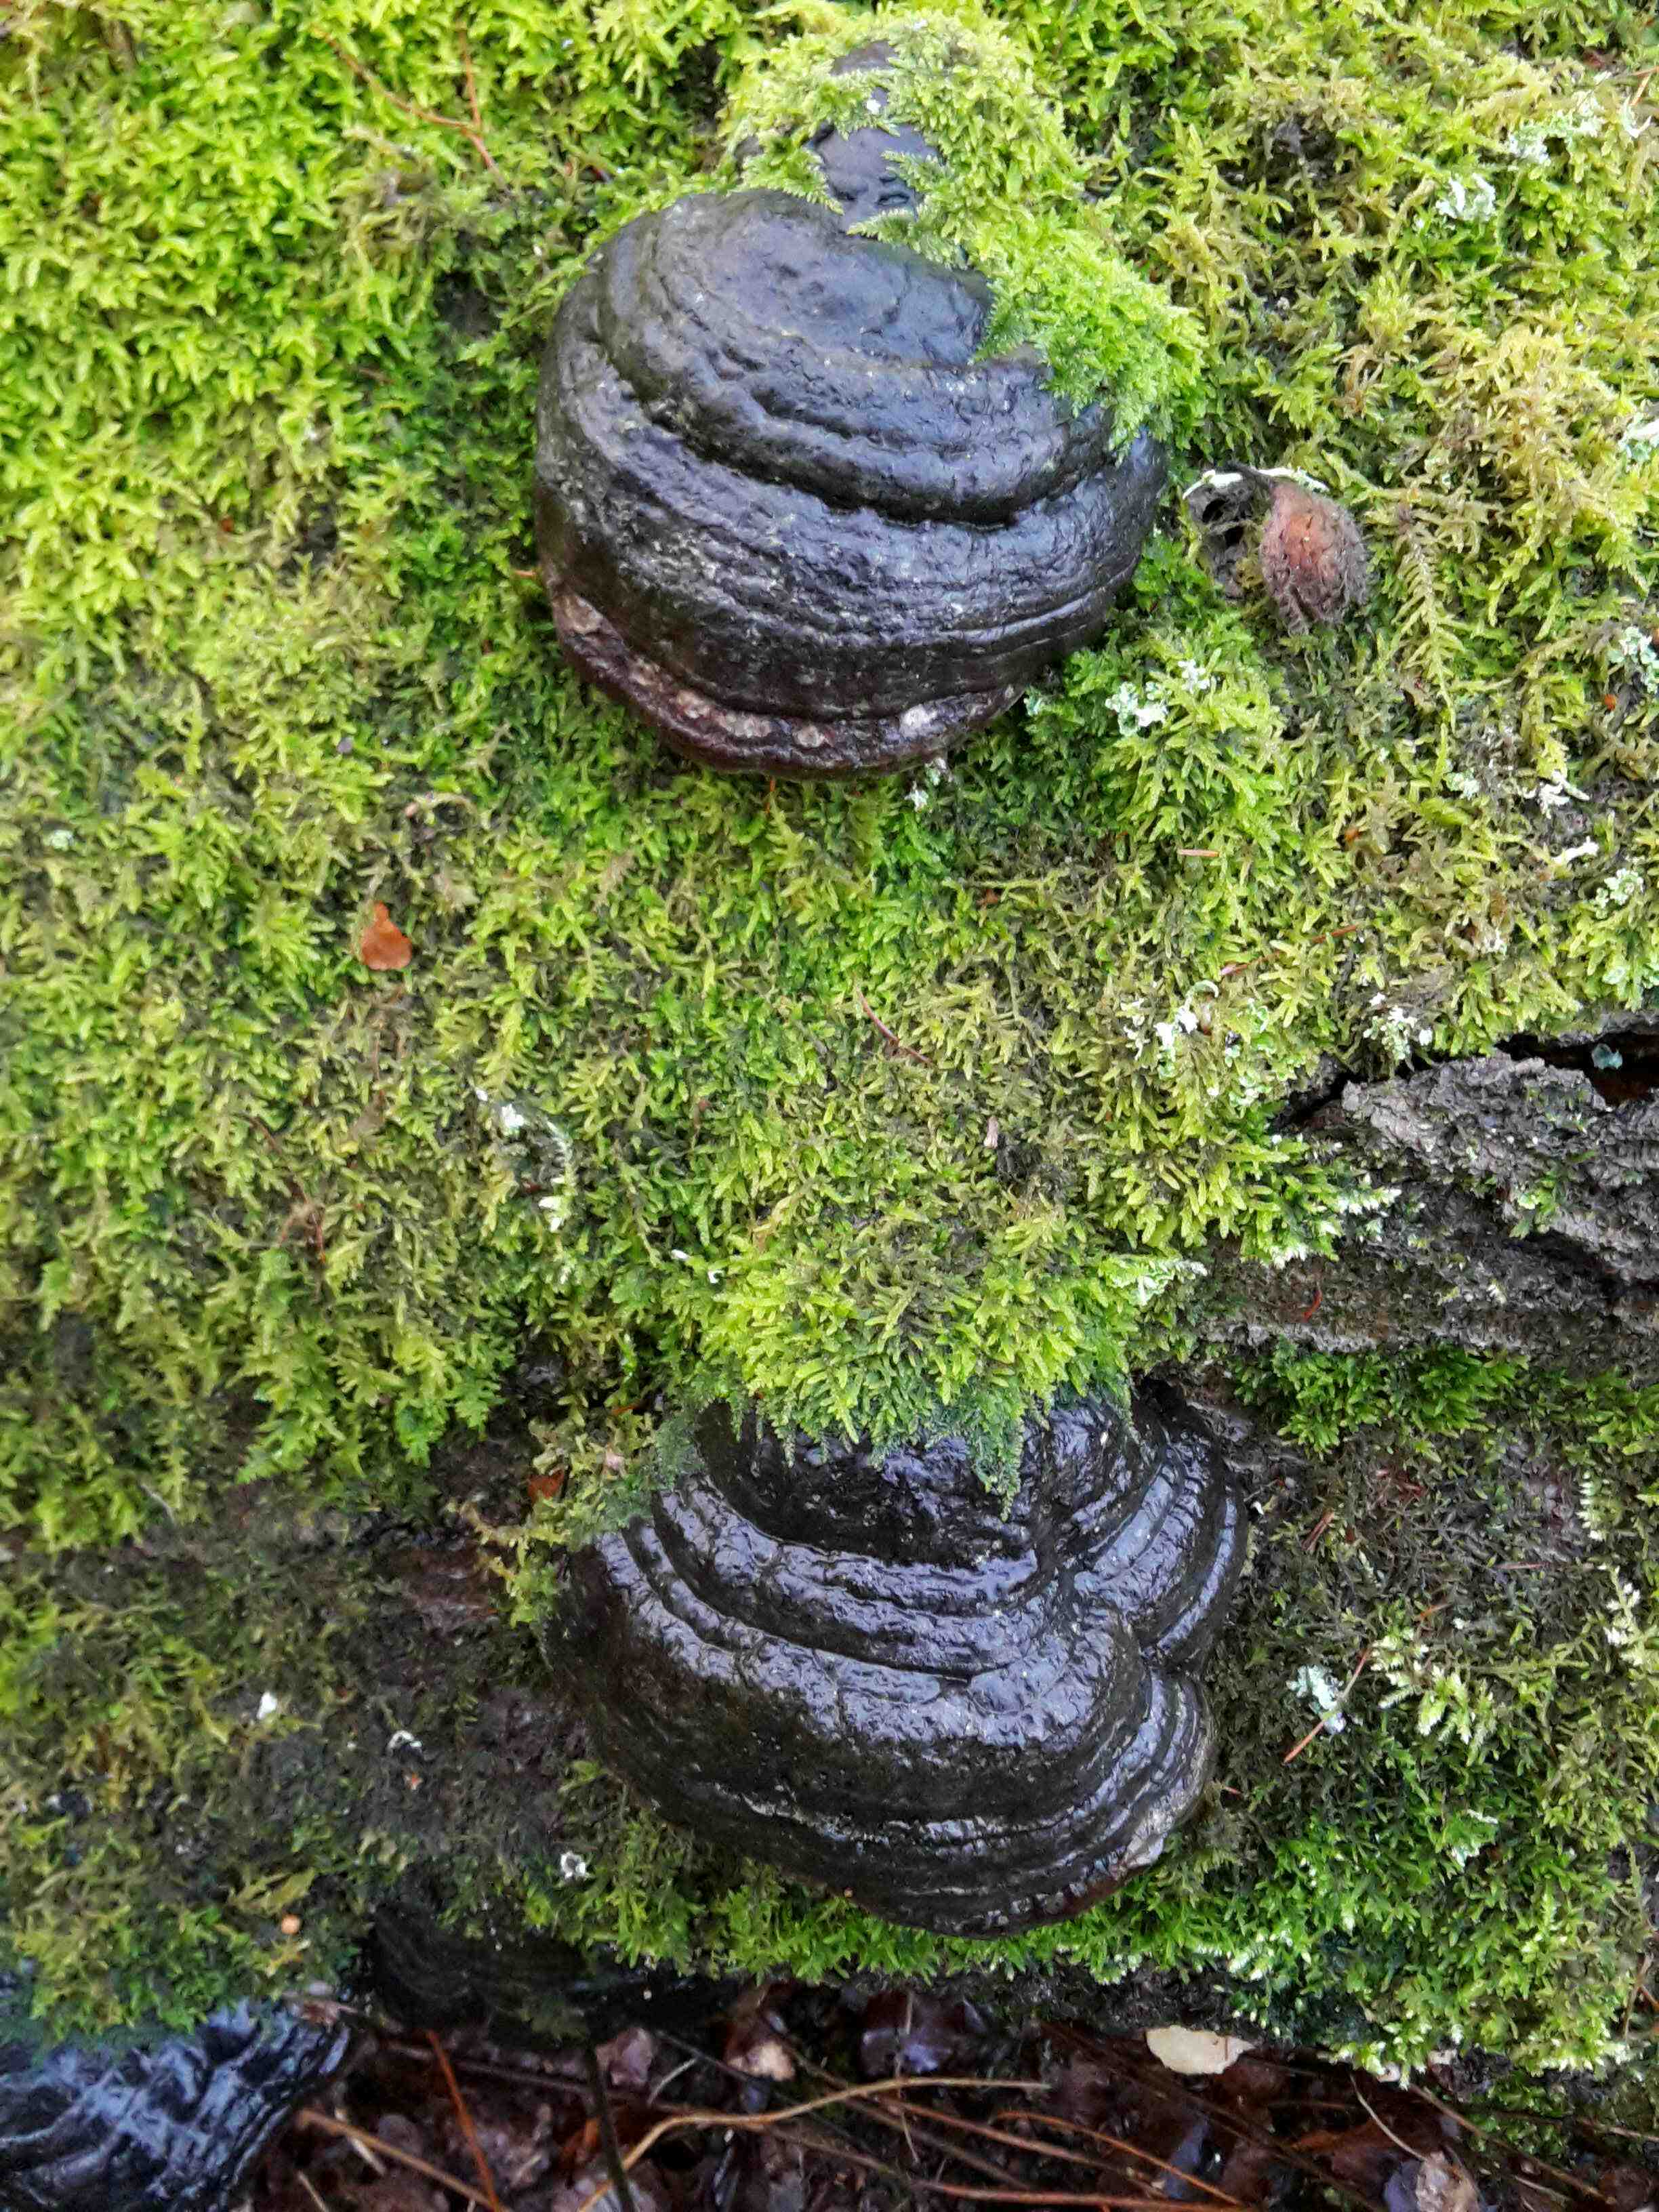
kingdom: Fungi
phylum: Basidiomycota
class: Agaricomycetes
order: Polyporales
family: Polyporaceae
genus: Fomes
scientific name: Fomes fomentarius
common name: tøndersvamp
